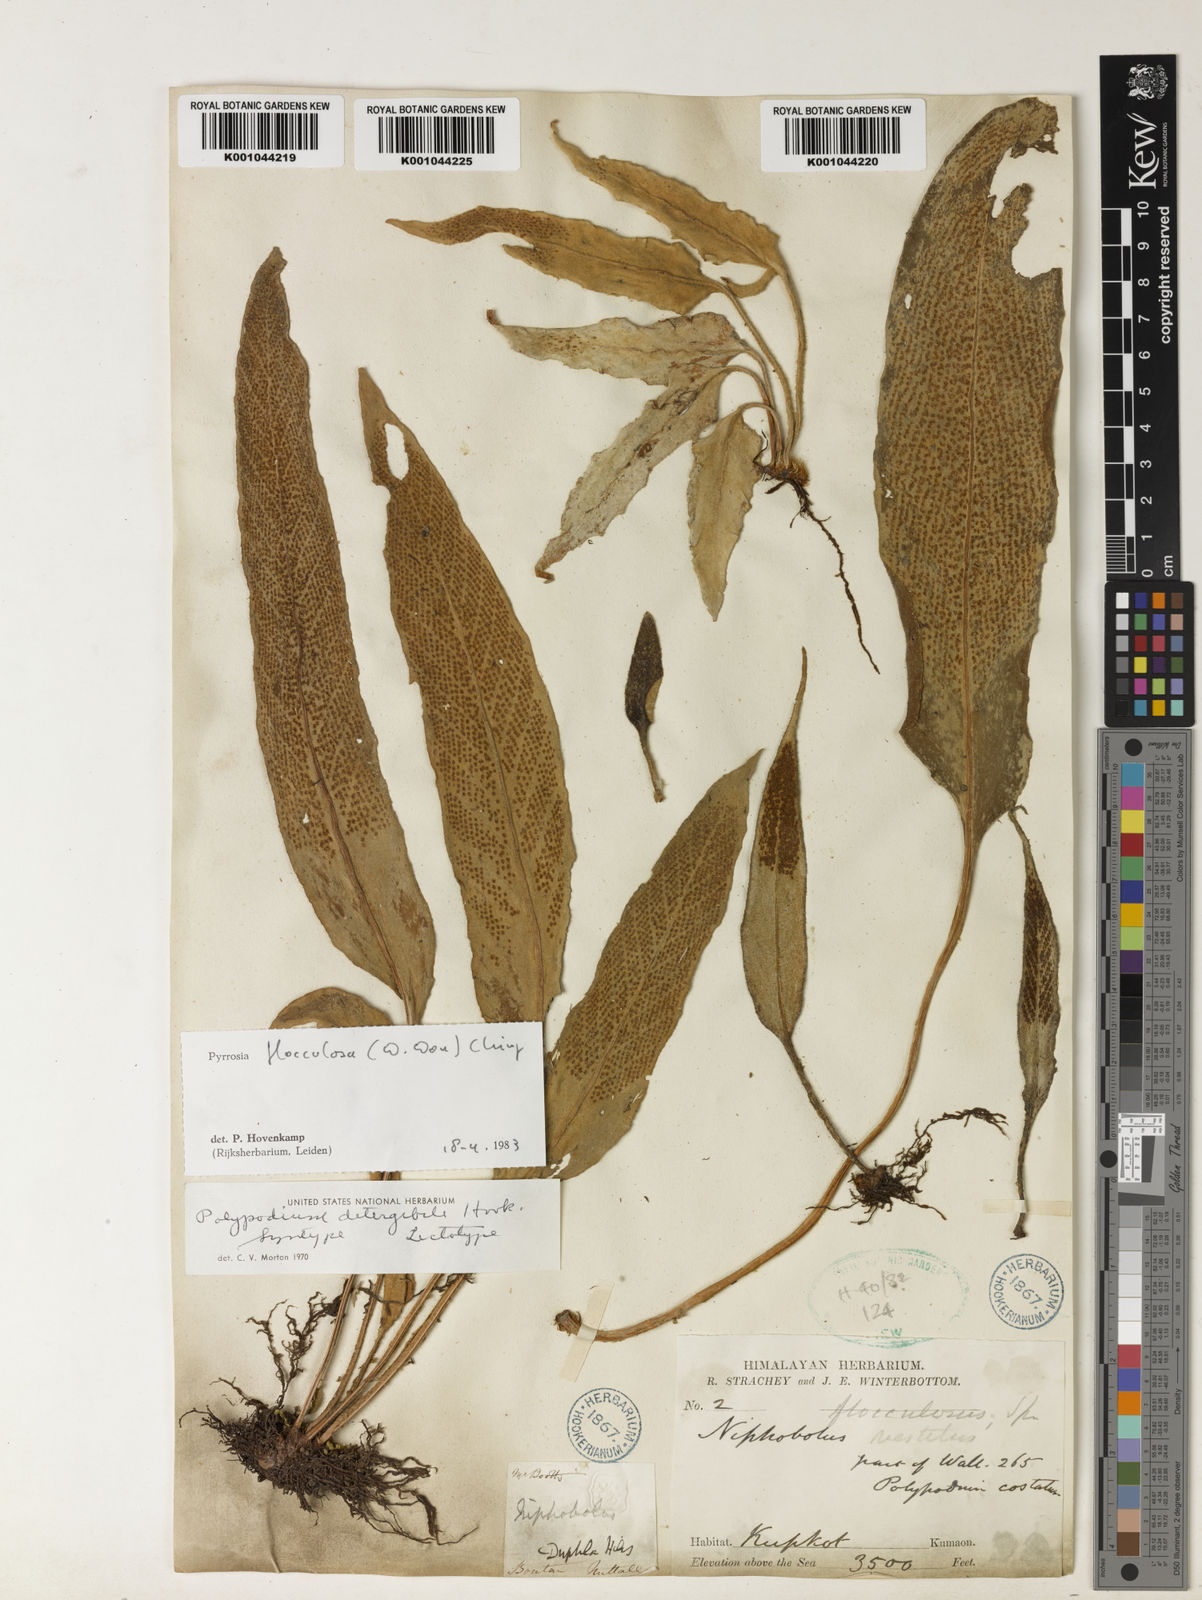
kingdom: Plantae
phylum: Tracheophyta
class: Polypodiopsida
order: Polypodiales
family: Polypodiaceae
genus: Pyrrosia
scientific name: Pyrrosia flocculosa
